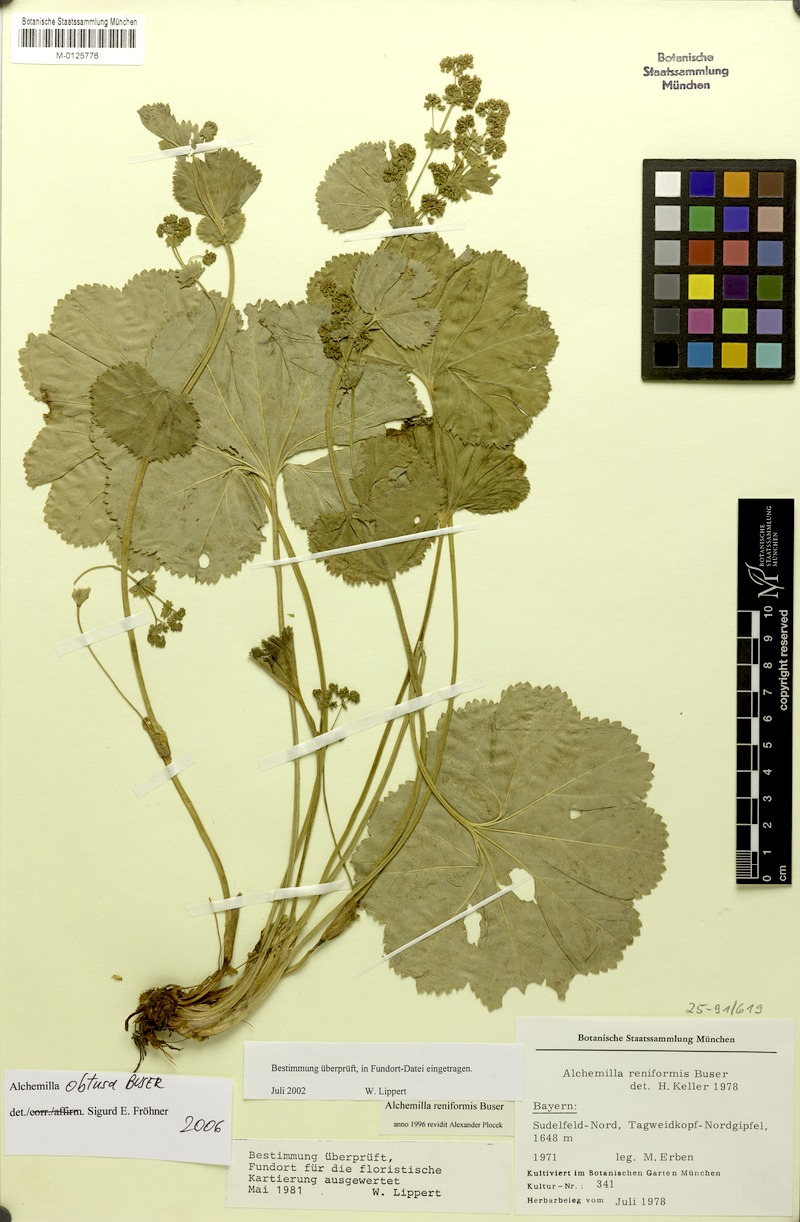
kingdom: Plantae
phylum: Tracheophyta
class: Magnoliopsida
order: Rosales
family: Rosaceae
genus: Alchemilla
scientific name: Alchemilla obtusa
